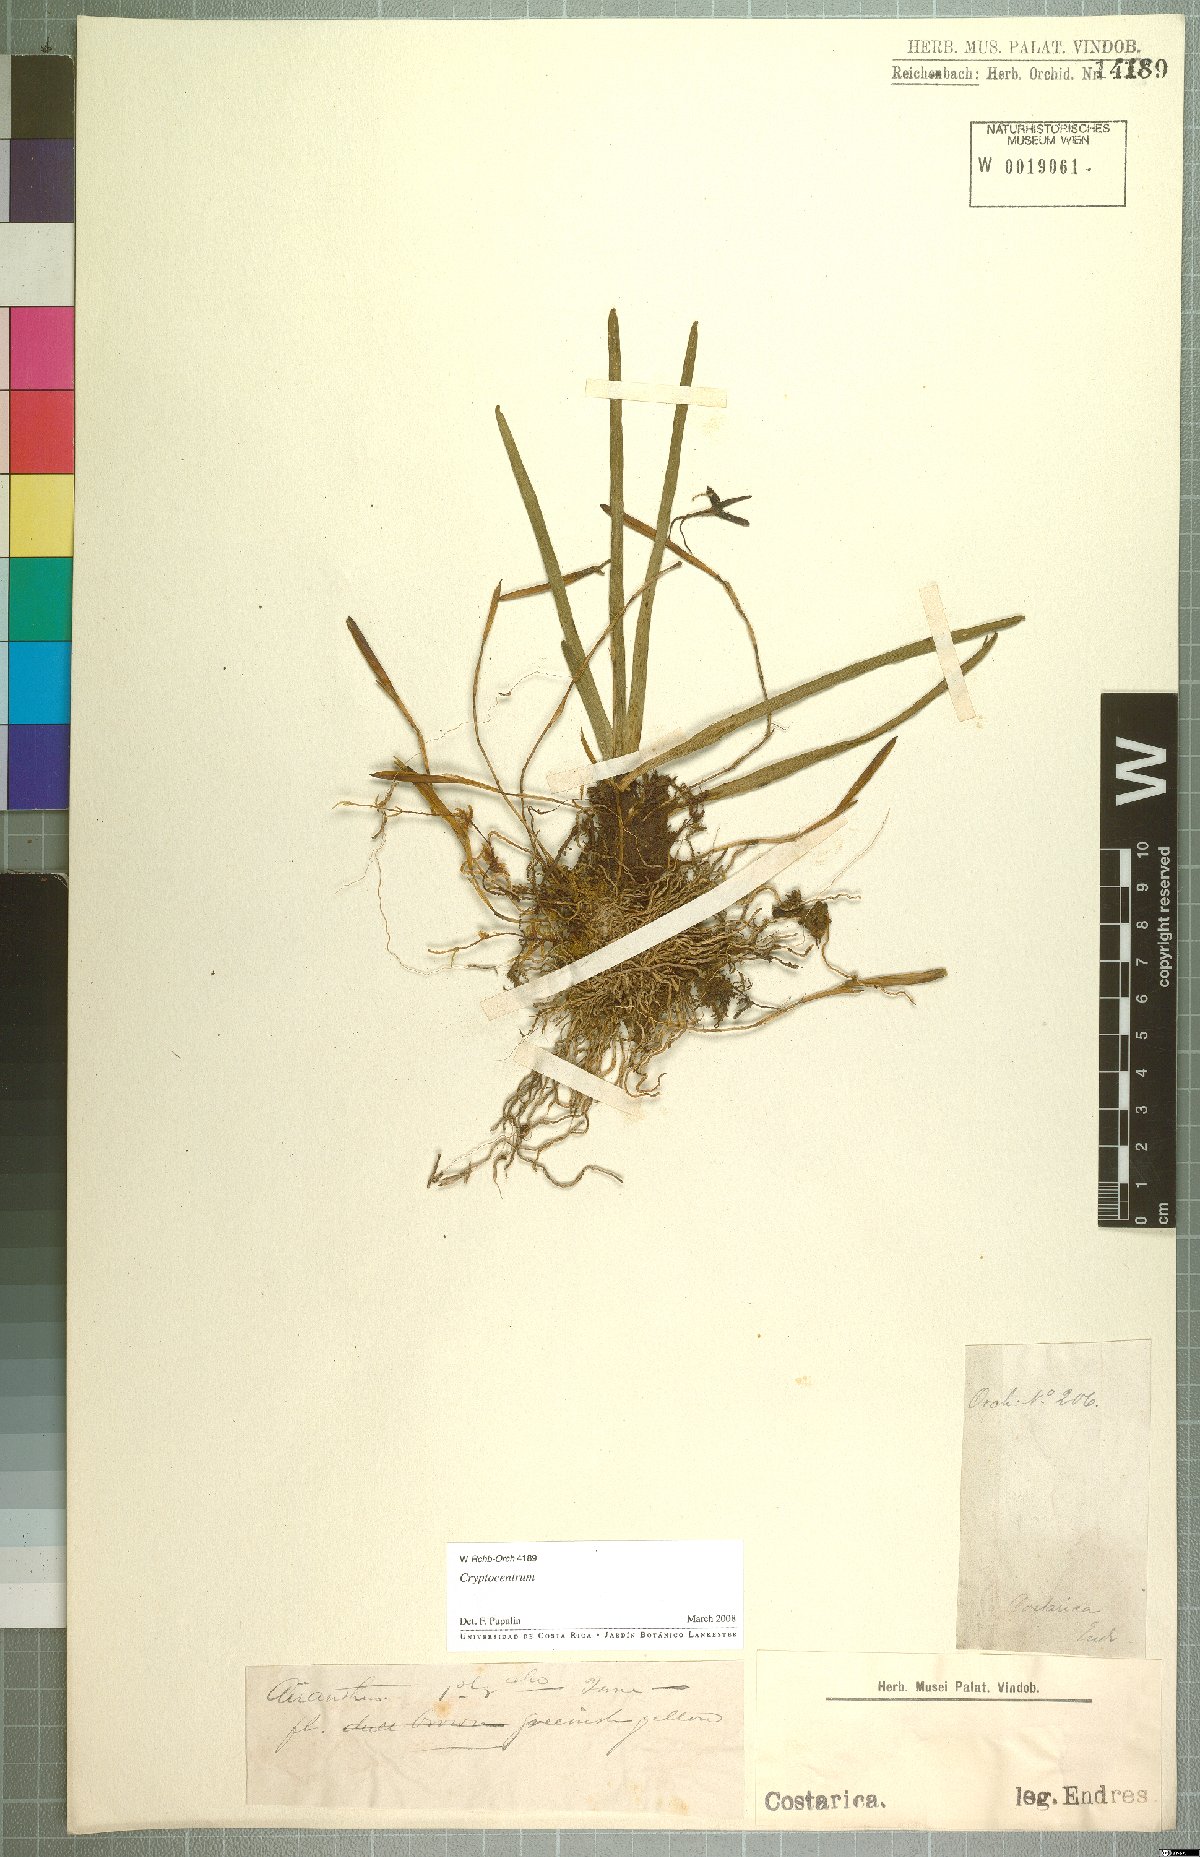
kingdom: Plantae
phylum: Tracheophyta
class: Liliopsida
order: Asparagales
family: Orchidaceae
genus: Maxillaria
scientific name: Maxillaria jacquelineana
